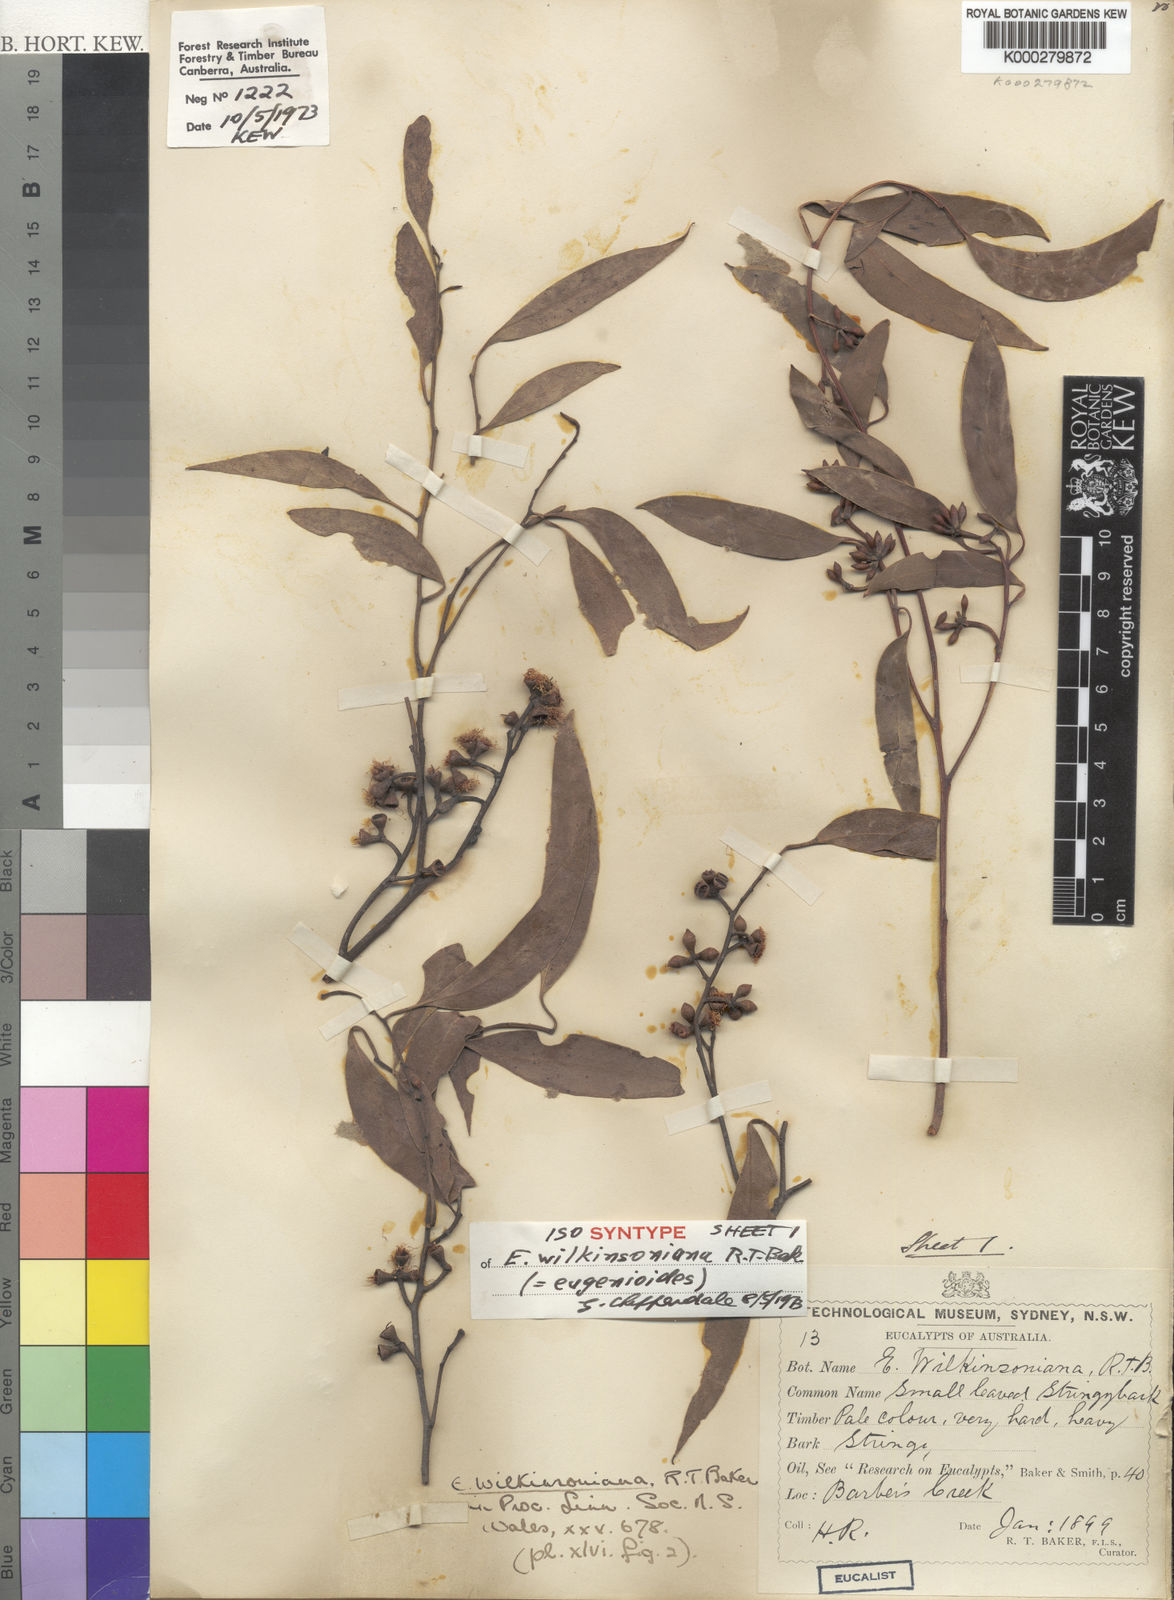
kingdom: Plantae
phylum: Tracheophyta
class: Magnoliopsida
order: Myrtales
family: Myrtaceae
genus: Eucalyptus
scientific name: Eucalyptus eugenioides
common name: Narrow-leaved-stringybark
